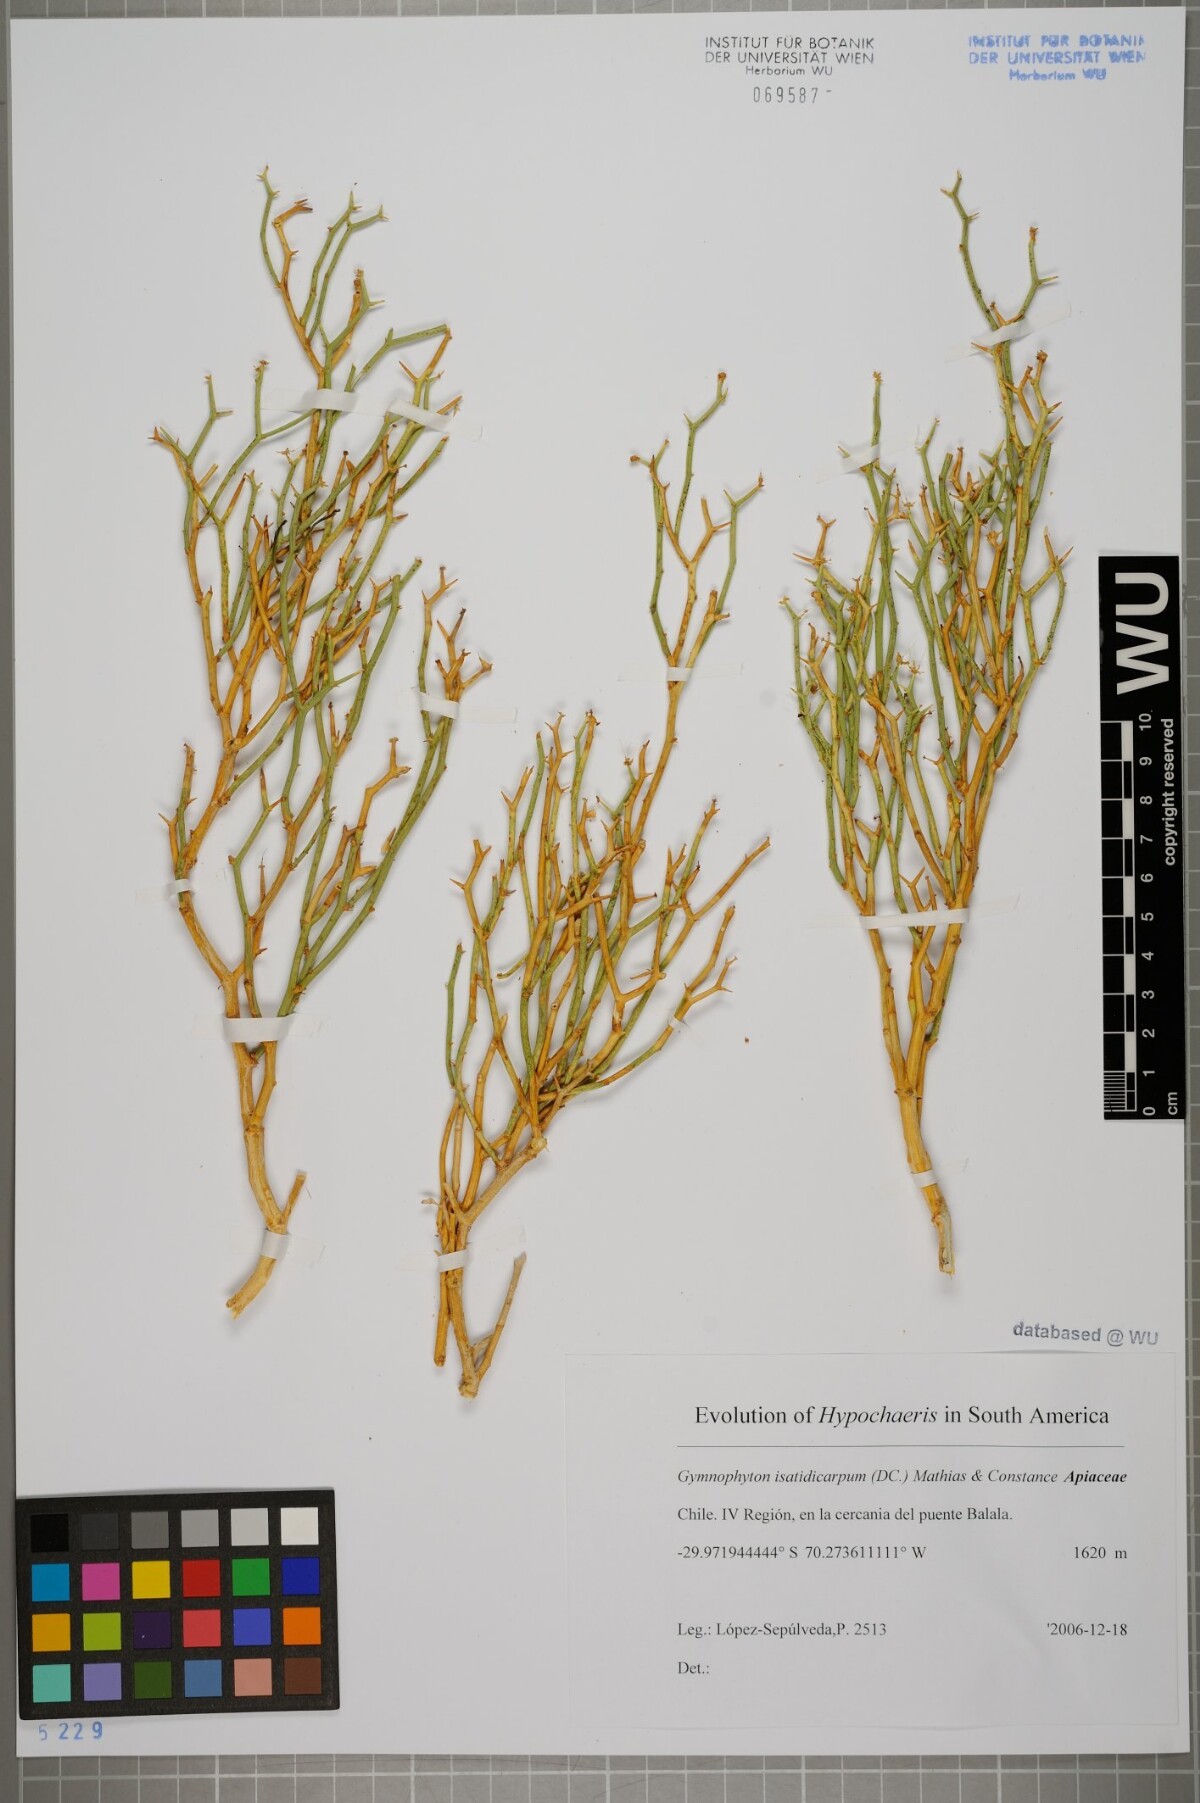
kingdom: Plantae
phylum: Tracheophyta
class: Magnoliopsida
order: Apiales
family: Apiaceae
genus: Gymnophyton
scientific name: Gymnophyton isatidicarpum
